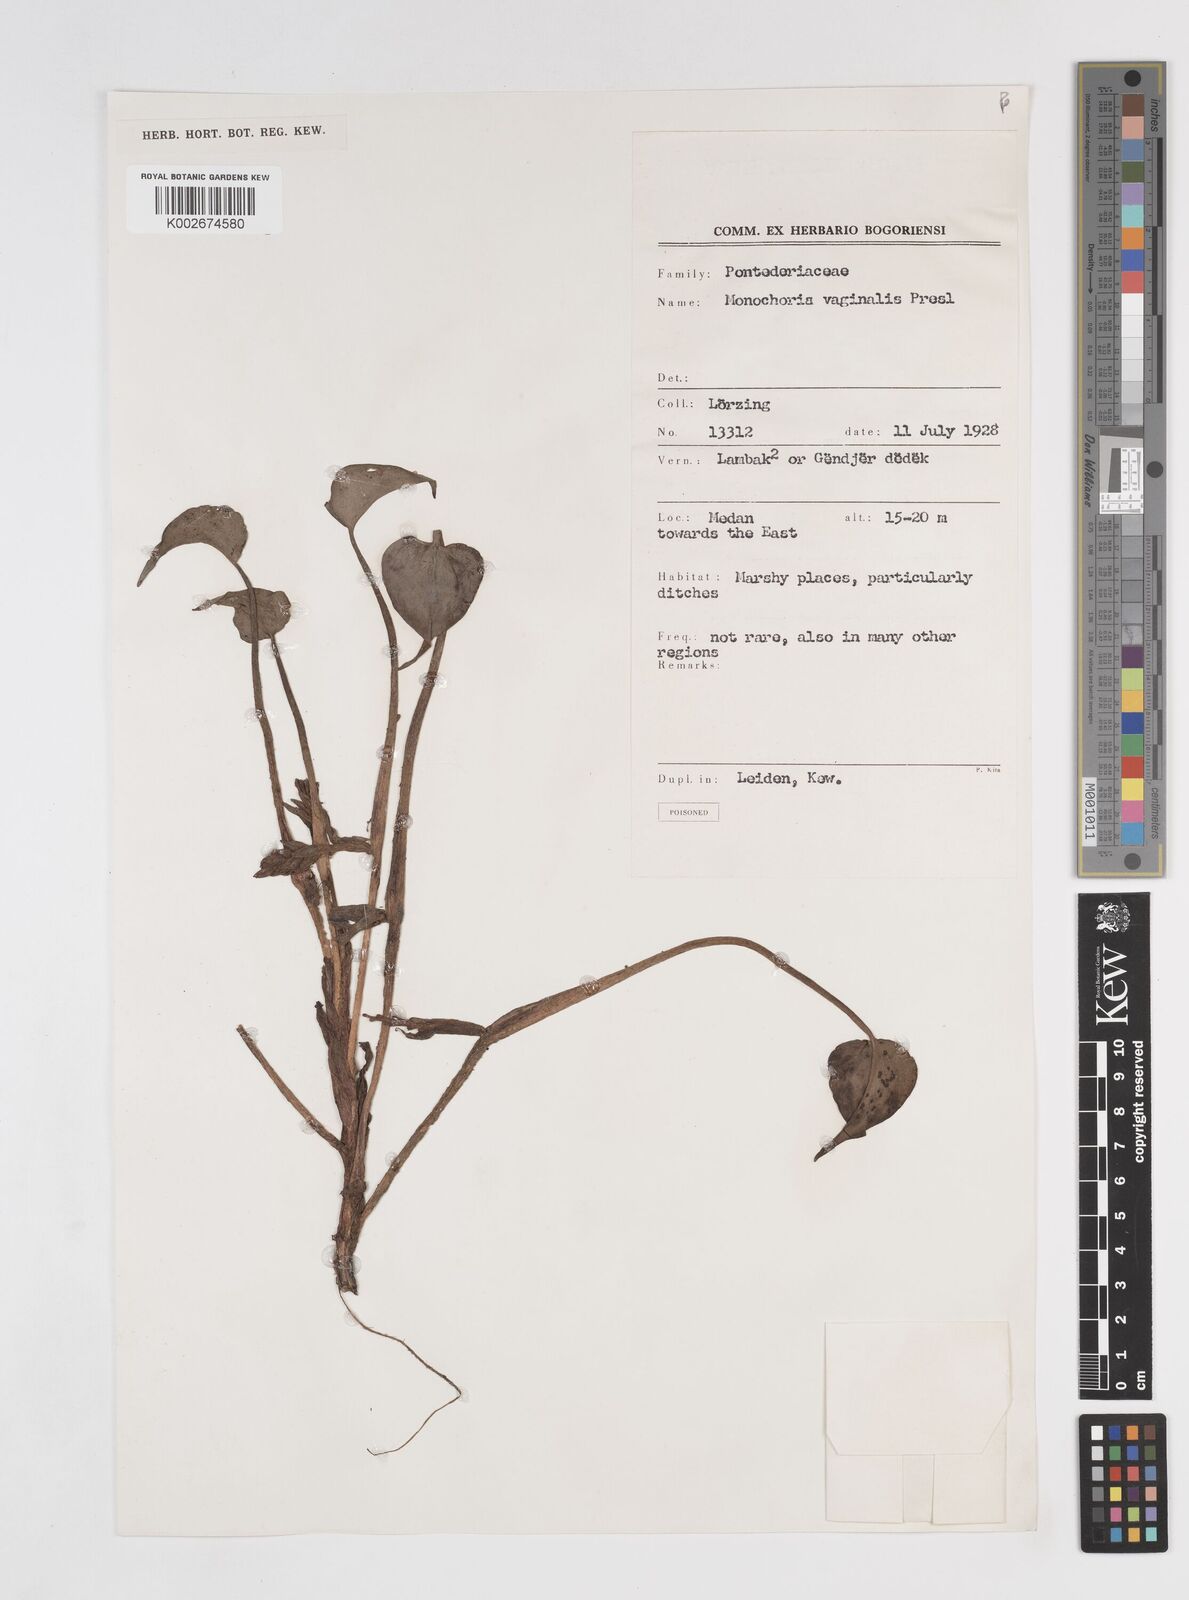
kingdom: Plantae
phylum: Tracheophyta
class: Liliopsida
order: Commelinales
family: Pontederiaceae
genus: Pontederia
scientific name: Pontederia vaginalis
